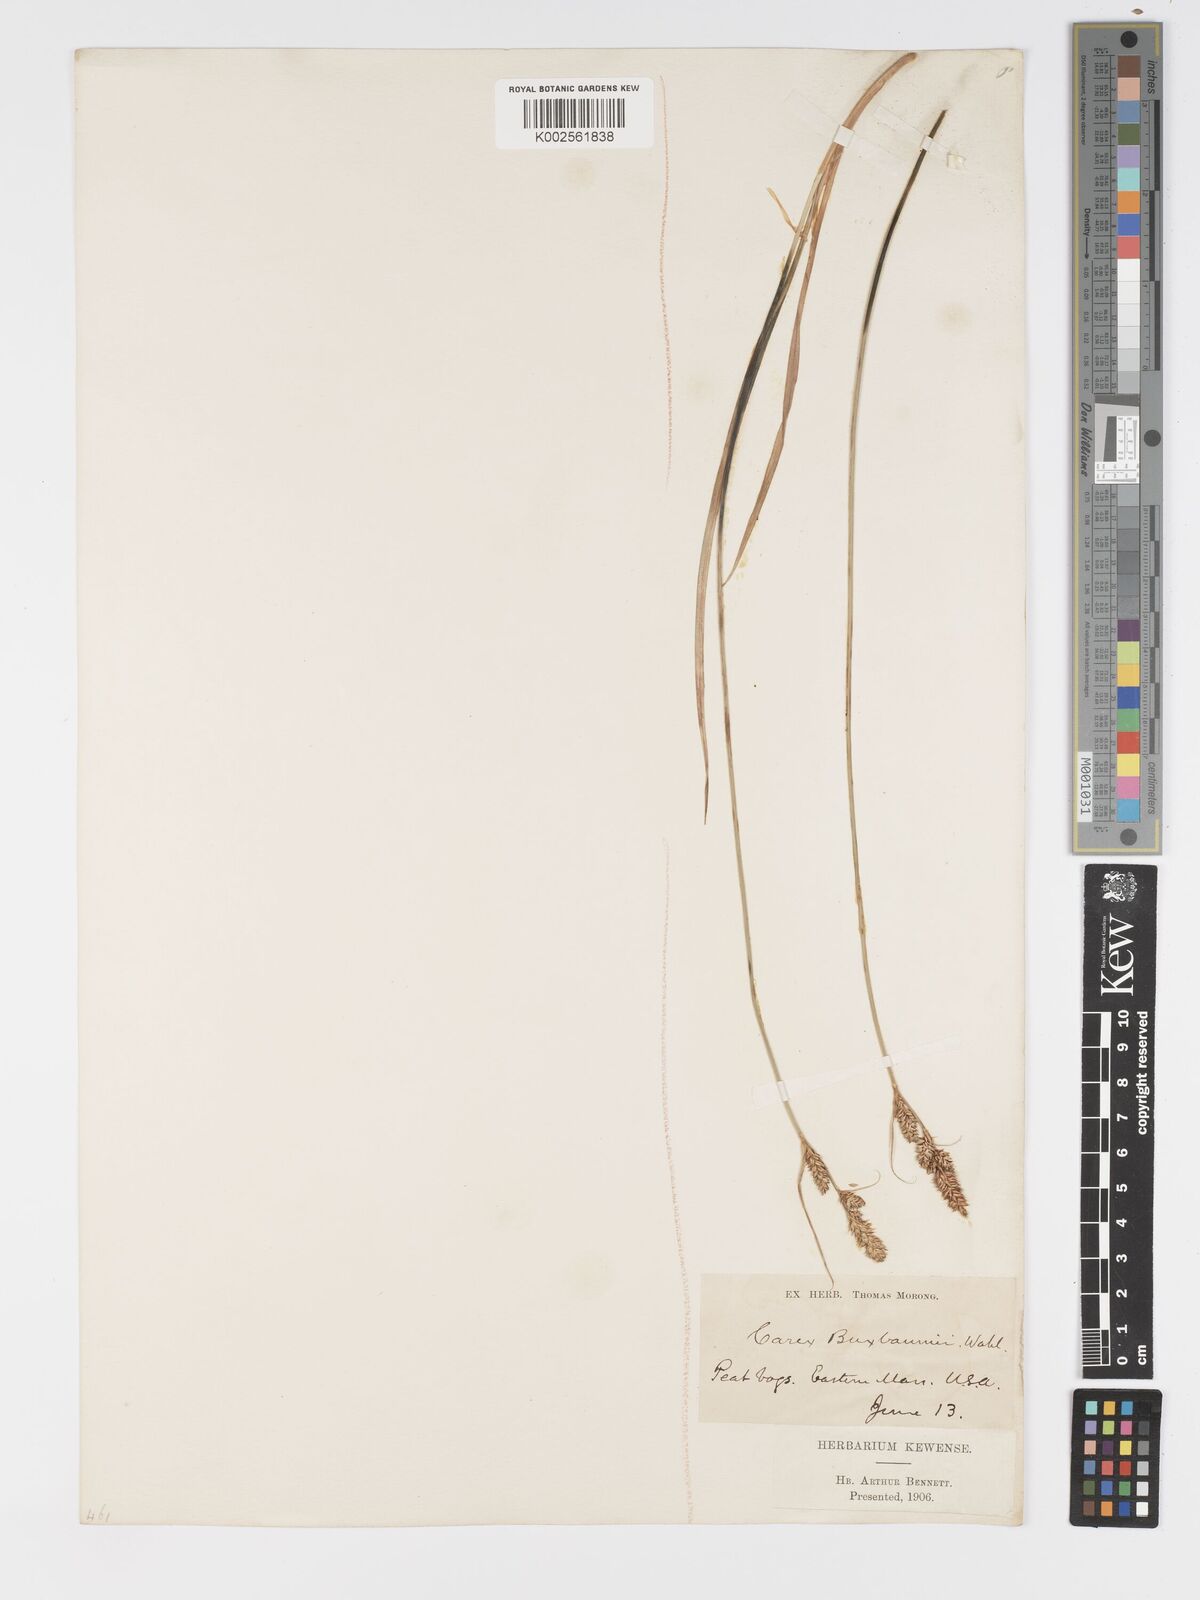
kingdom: Plantae
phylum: Tracheophyta
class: Liliopsida
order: Poales
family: Cyperaceae
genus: Carex
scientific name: Carex buxbaumii
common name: Club sedge
